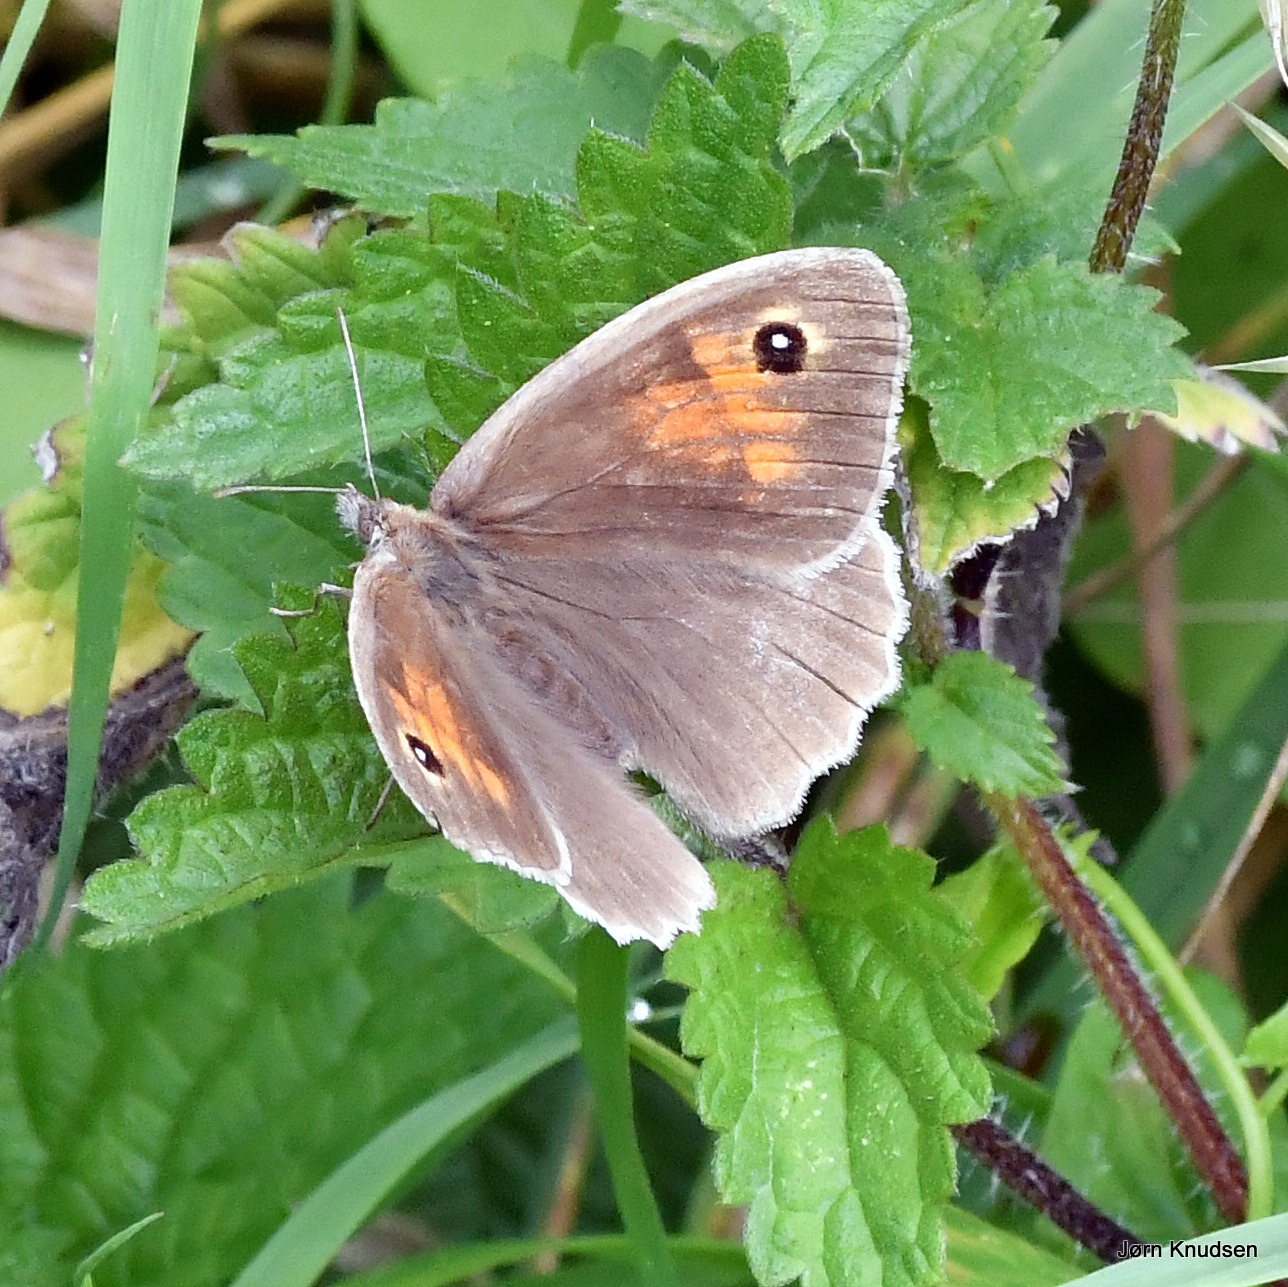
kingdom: Animalia
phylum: Arthropoda
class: Insecta
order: Lepidoptera
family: Nymphalidae
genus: Maniola
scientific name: Maniola jurtina
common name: Græsrandøje
